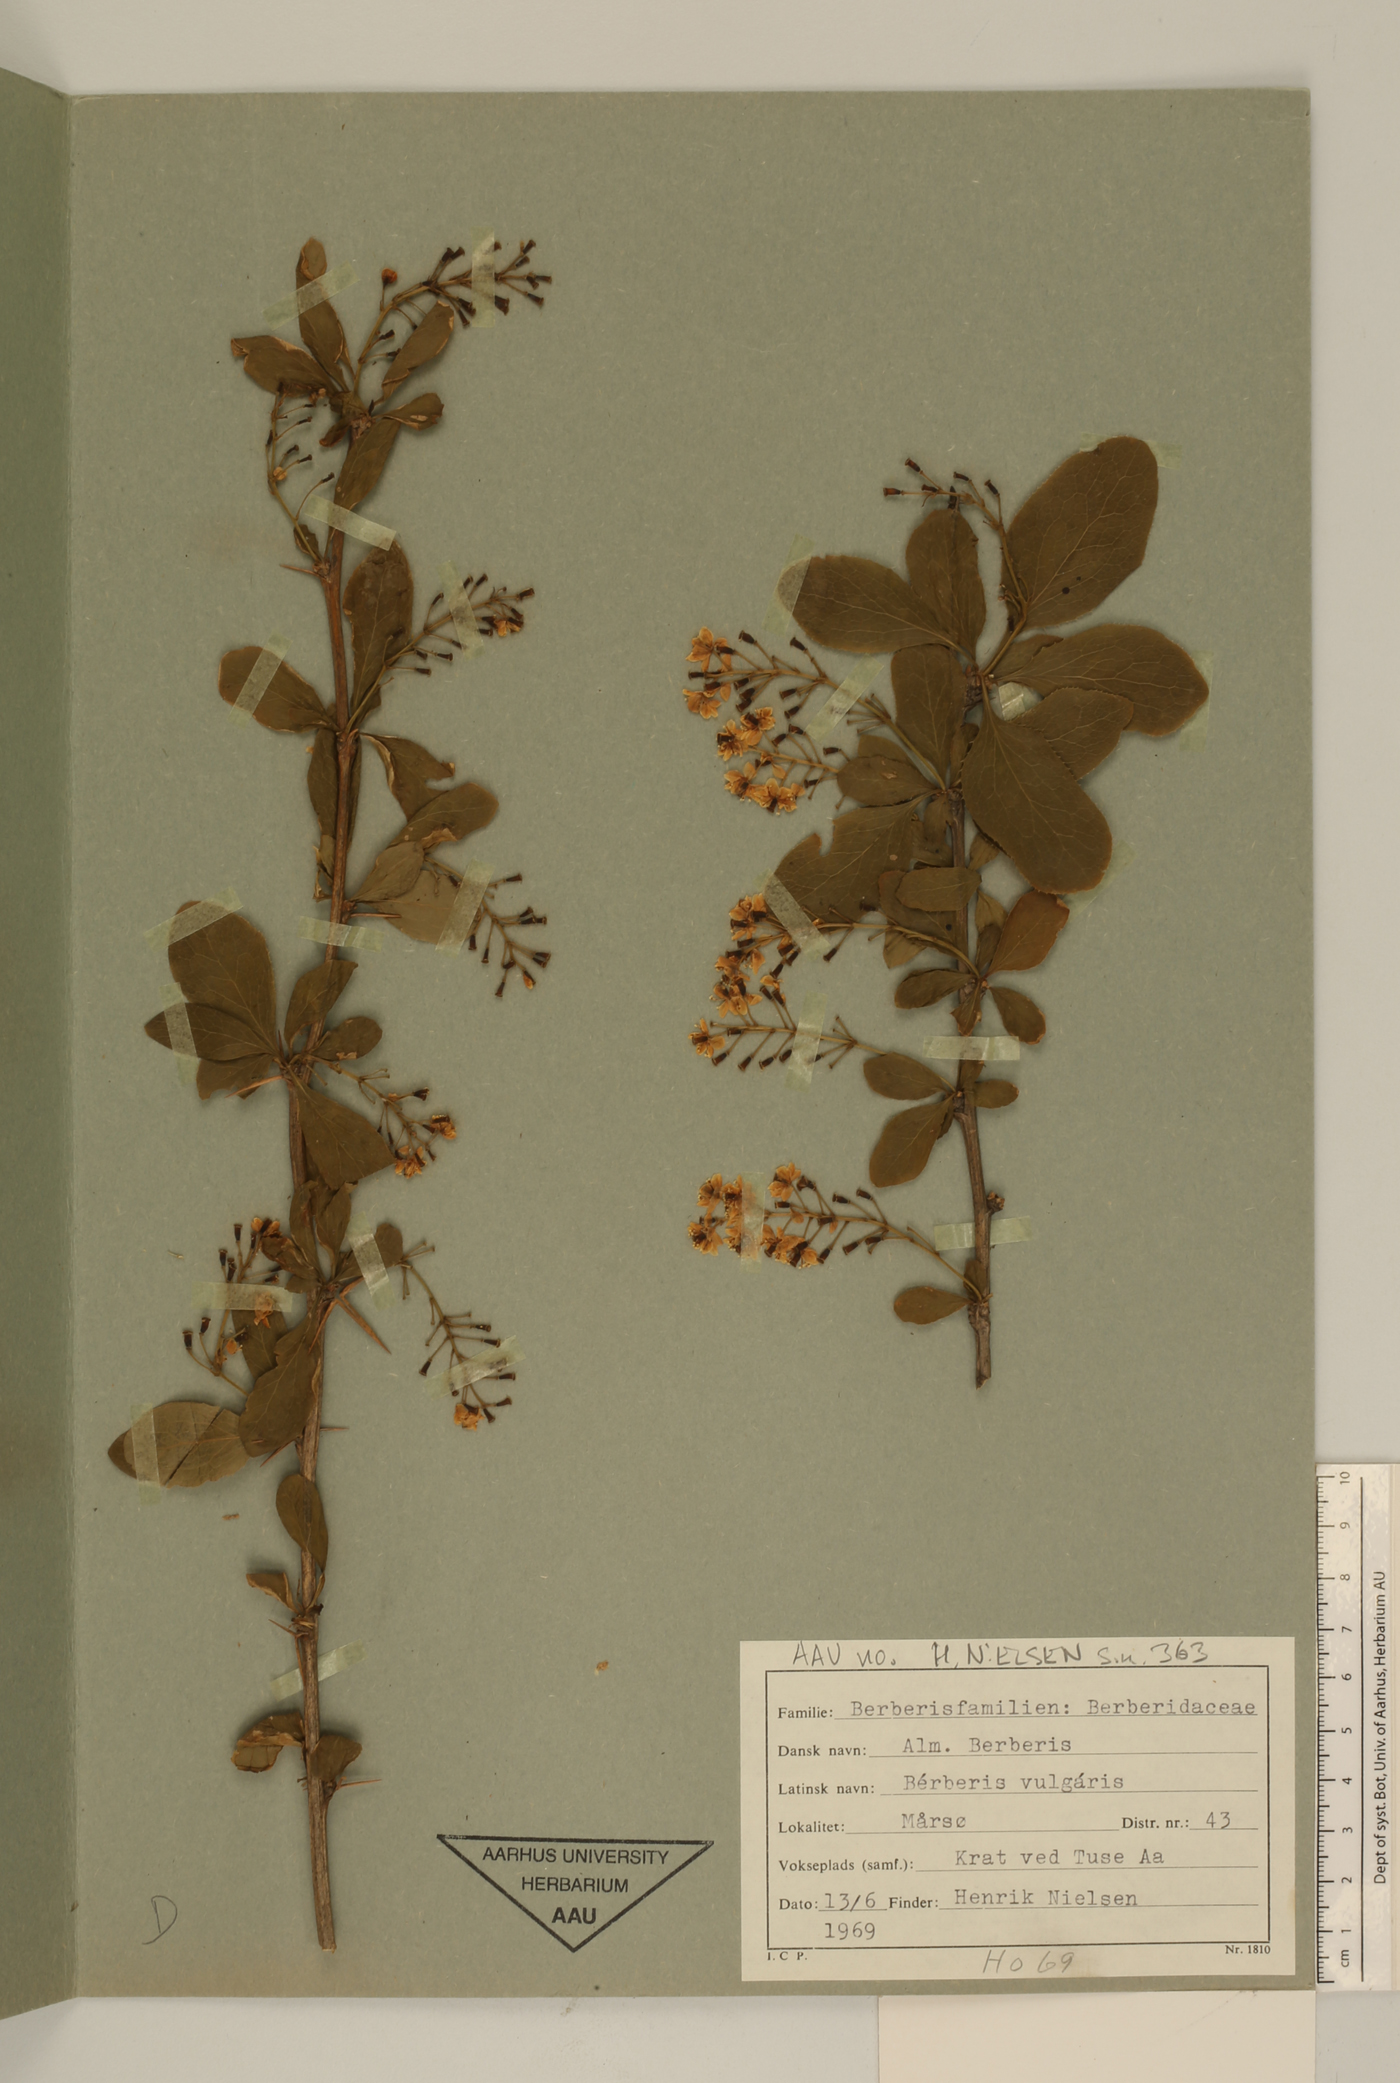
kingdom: Plantae
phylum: Tracheophyta
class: Magnoliopsida
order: Ranunculales
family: Berberidaceae
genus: Berberis
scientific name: Berberis vulgaris
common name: Barberry
